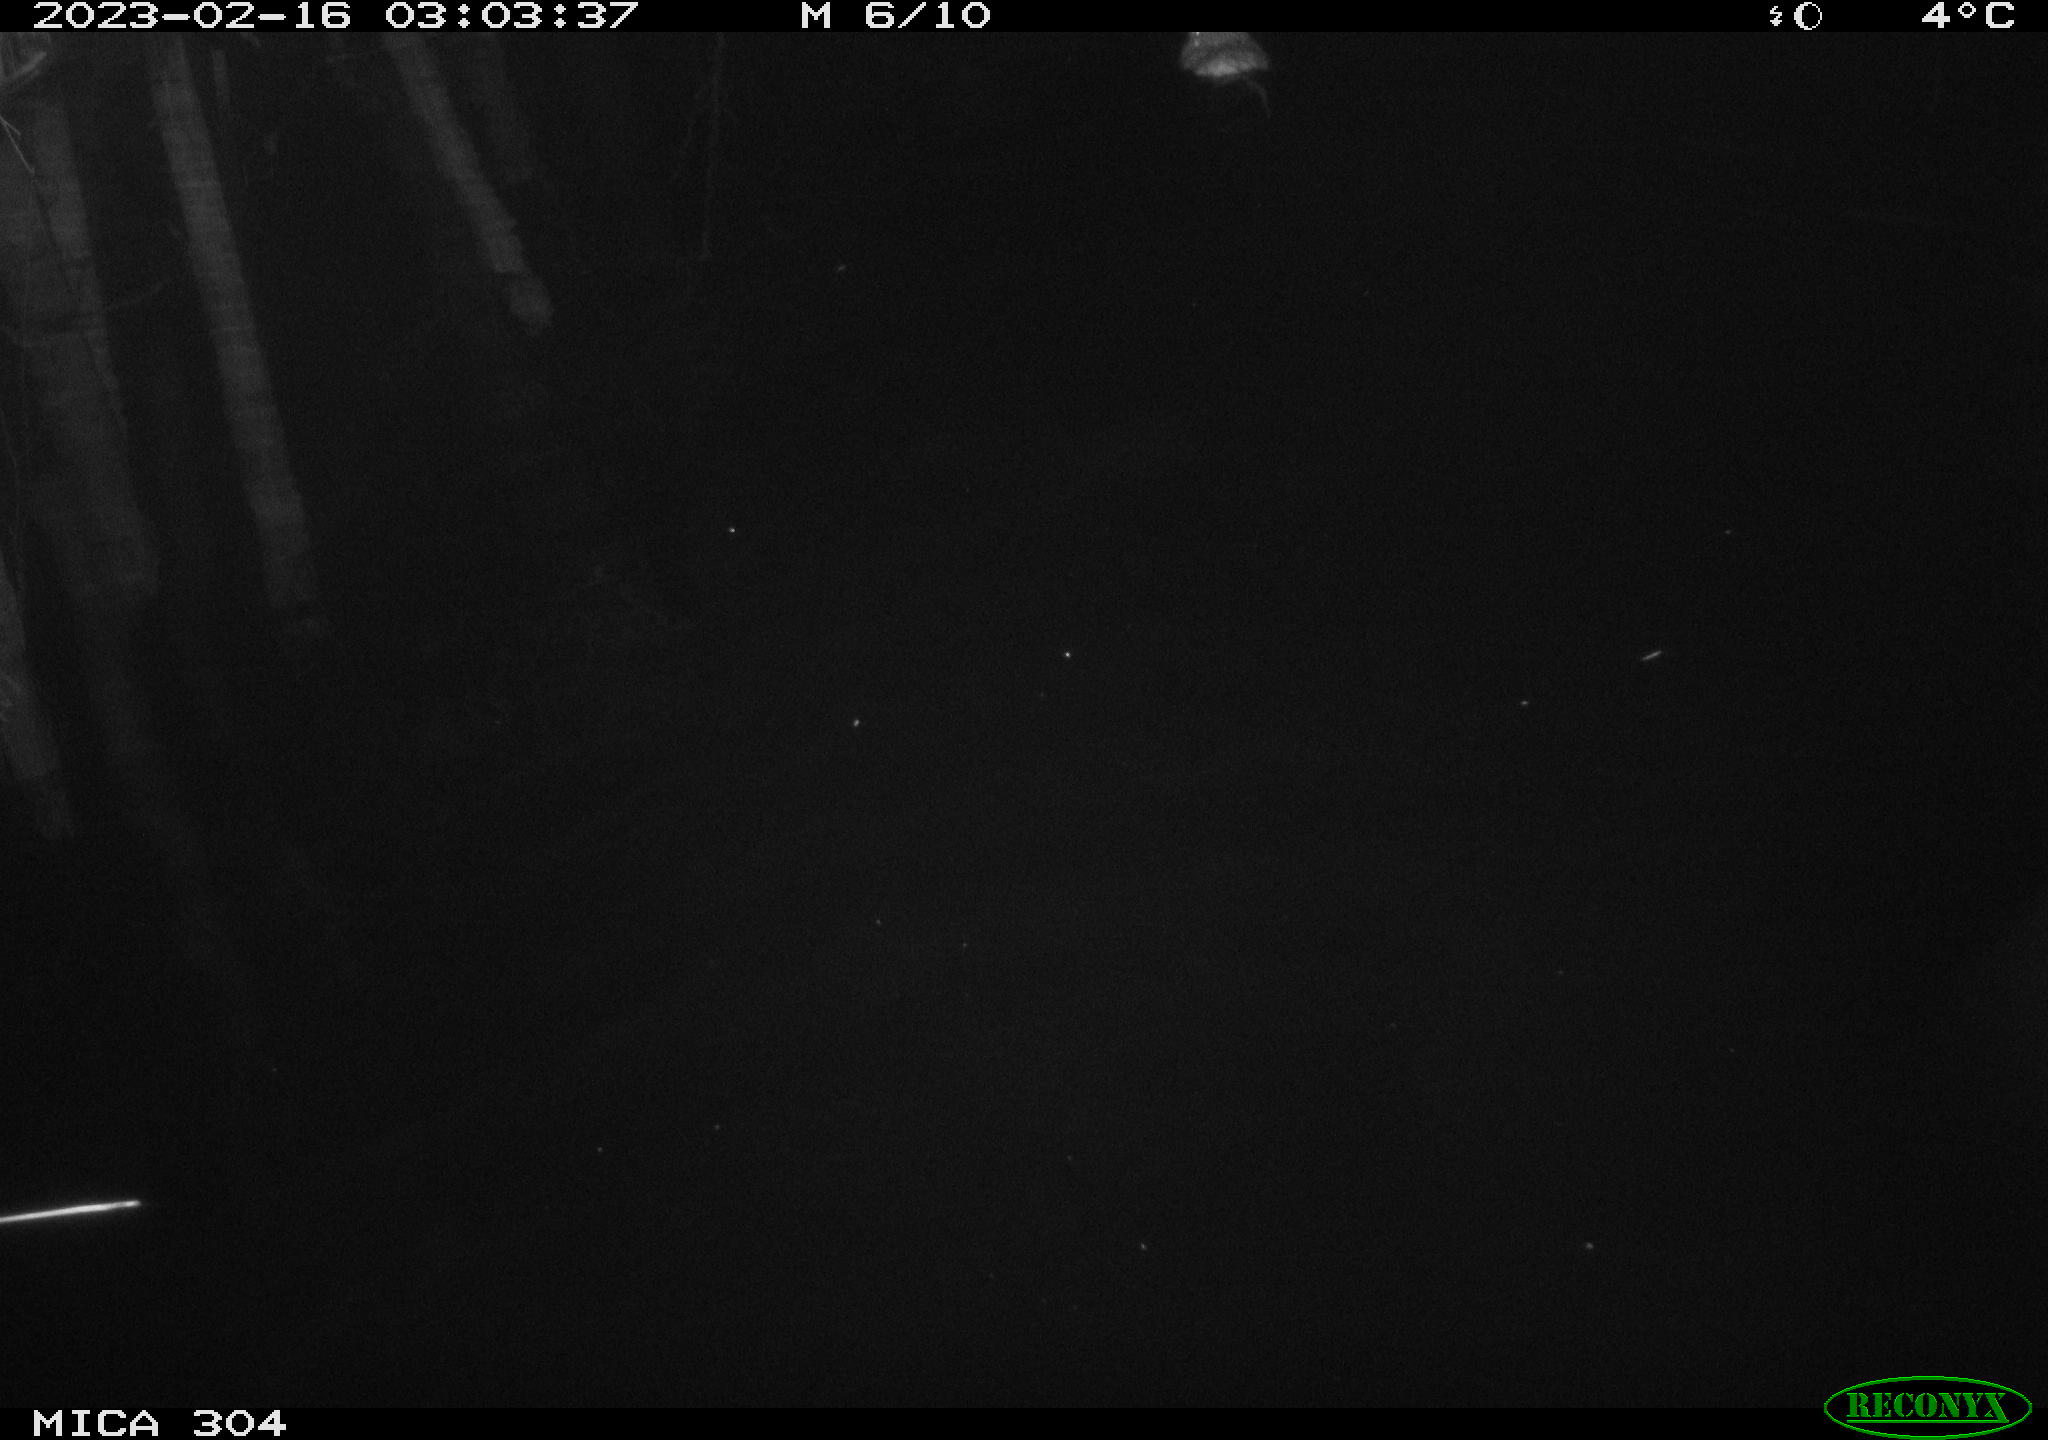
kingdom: Animalia
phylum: Chordata
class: Mammalia
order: Rodentia
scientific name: Rodentia
